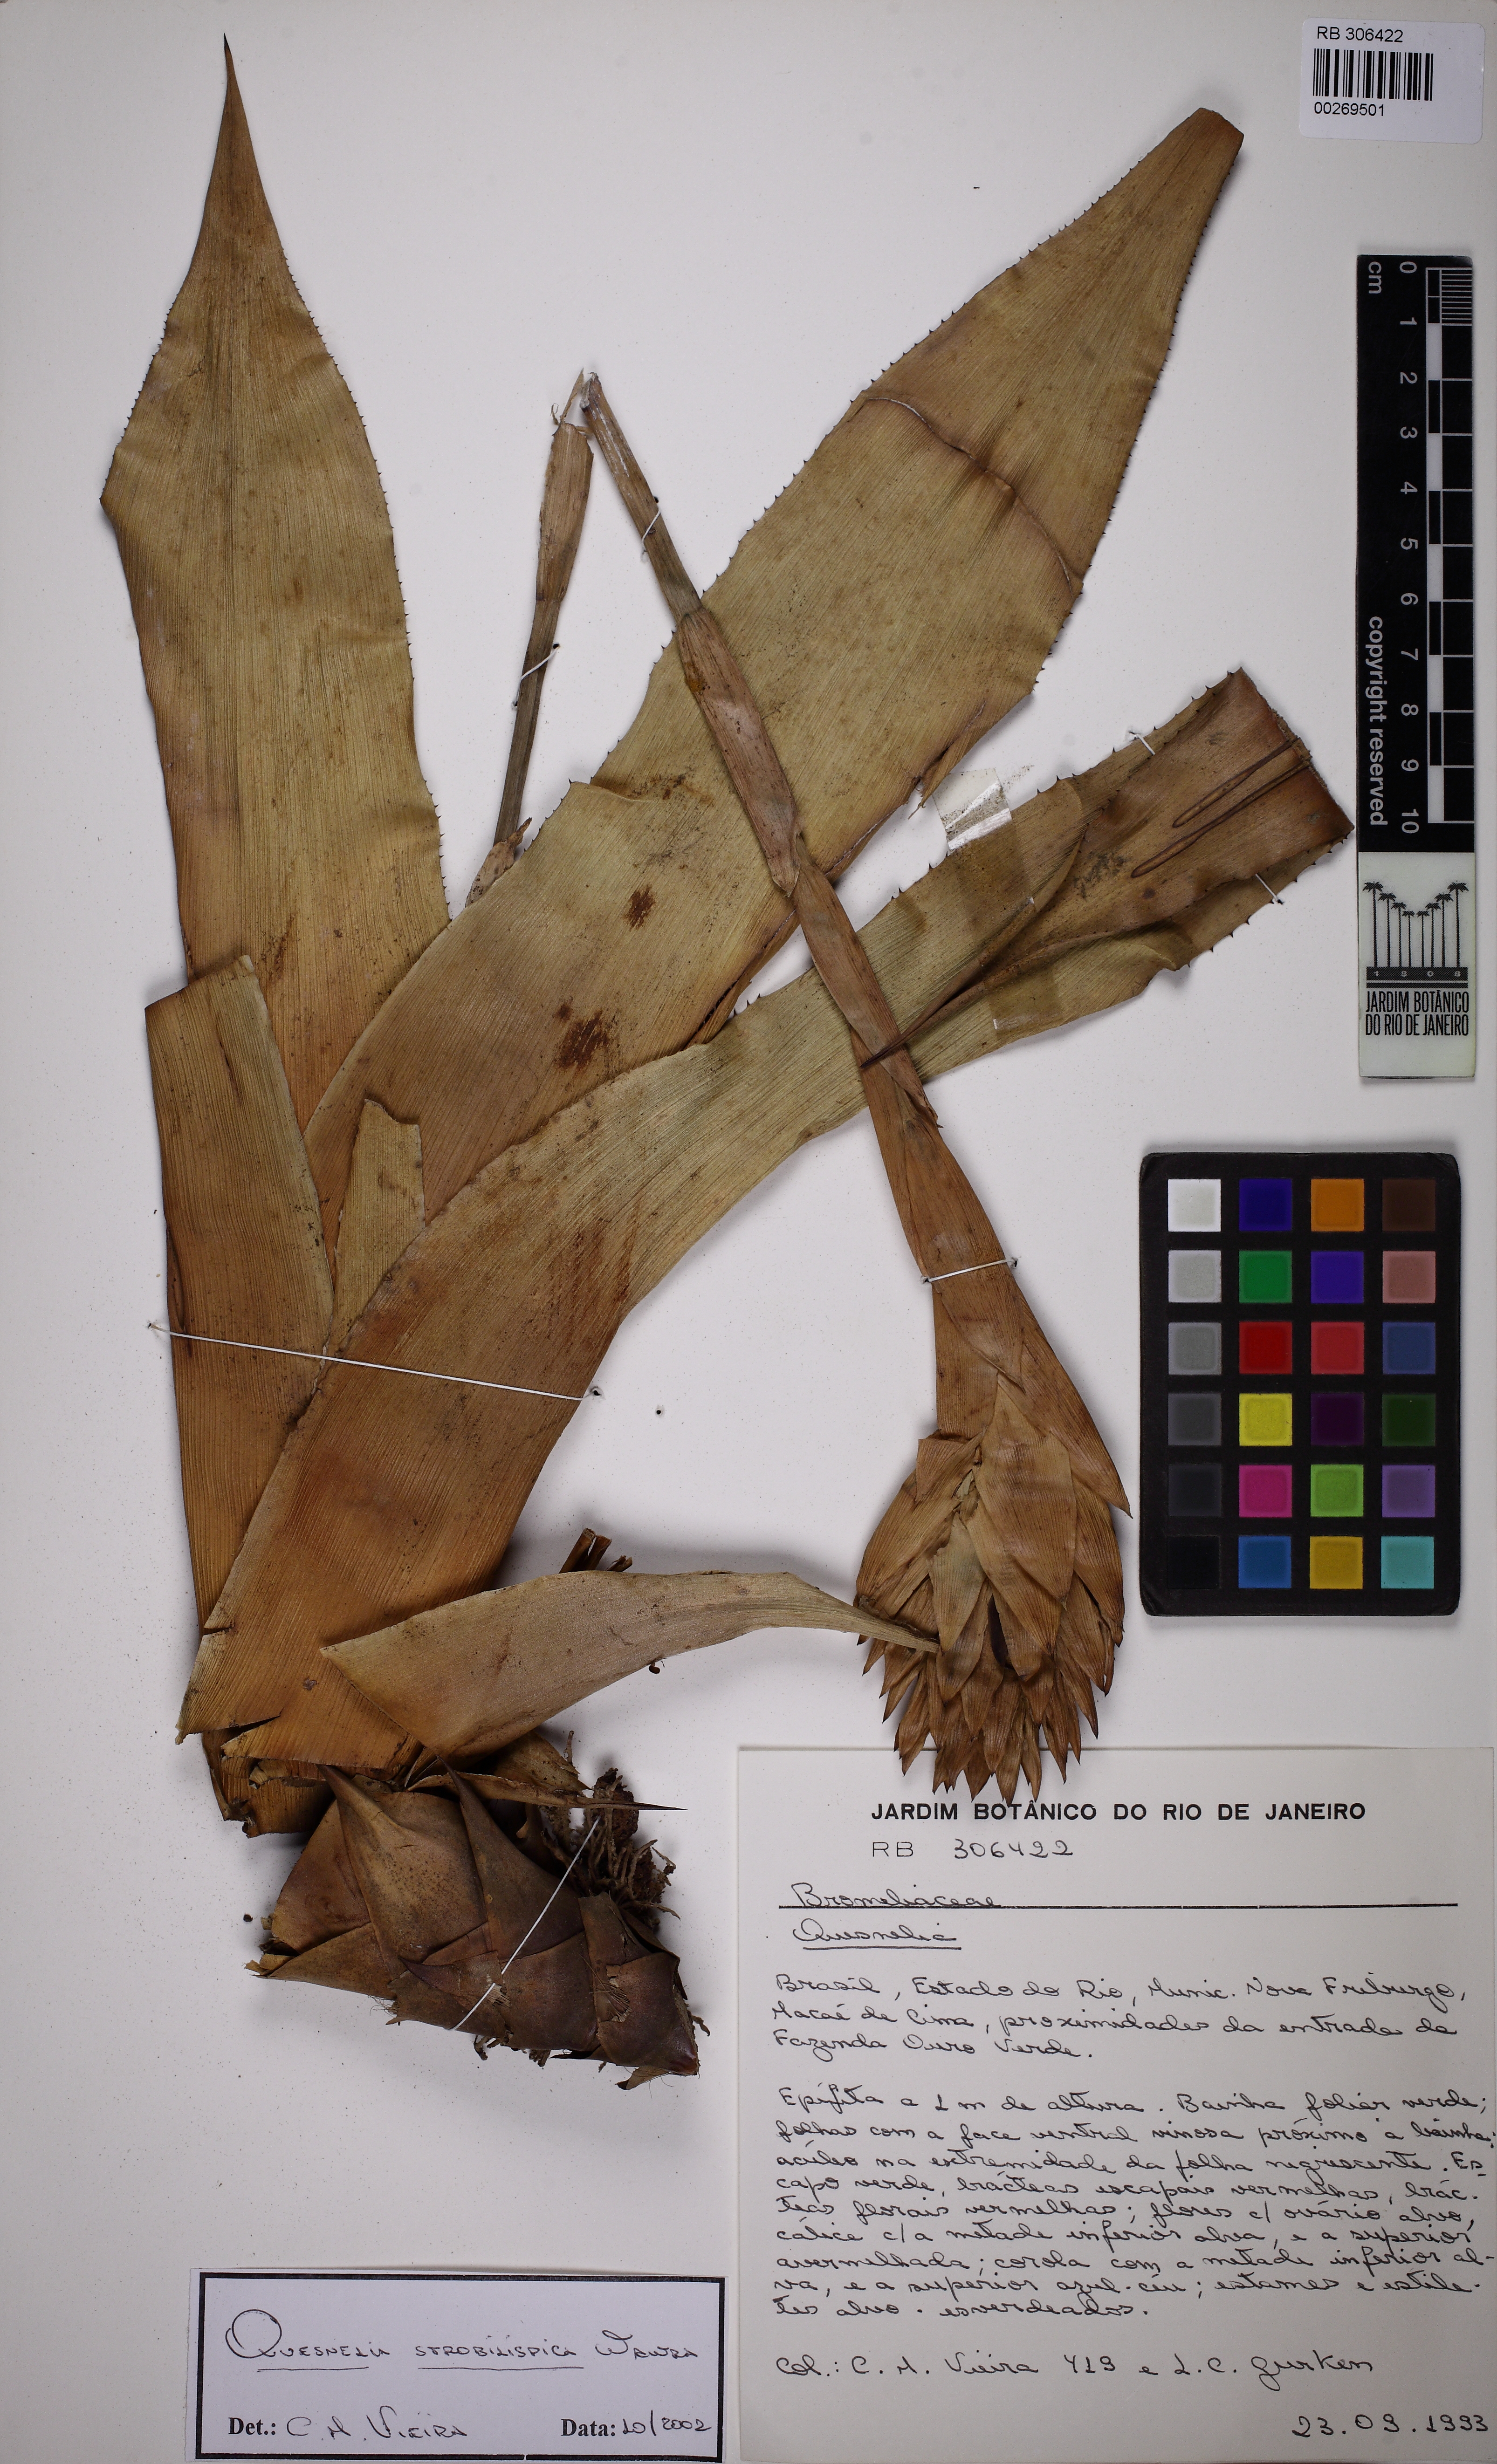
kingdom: Plantae
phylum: Tracheophyta
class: Liliopsida
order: Poales
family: Bromeliaceae
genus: Quesnelia
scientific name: Quesnelia strobilispica
